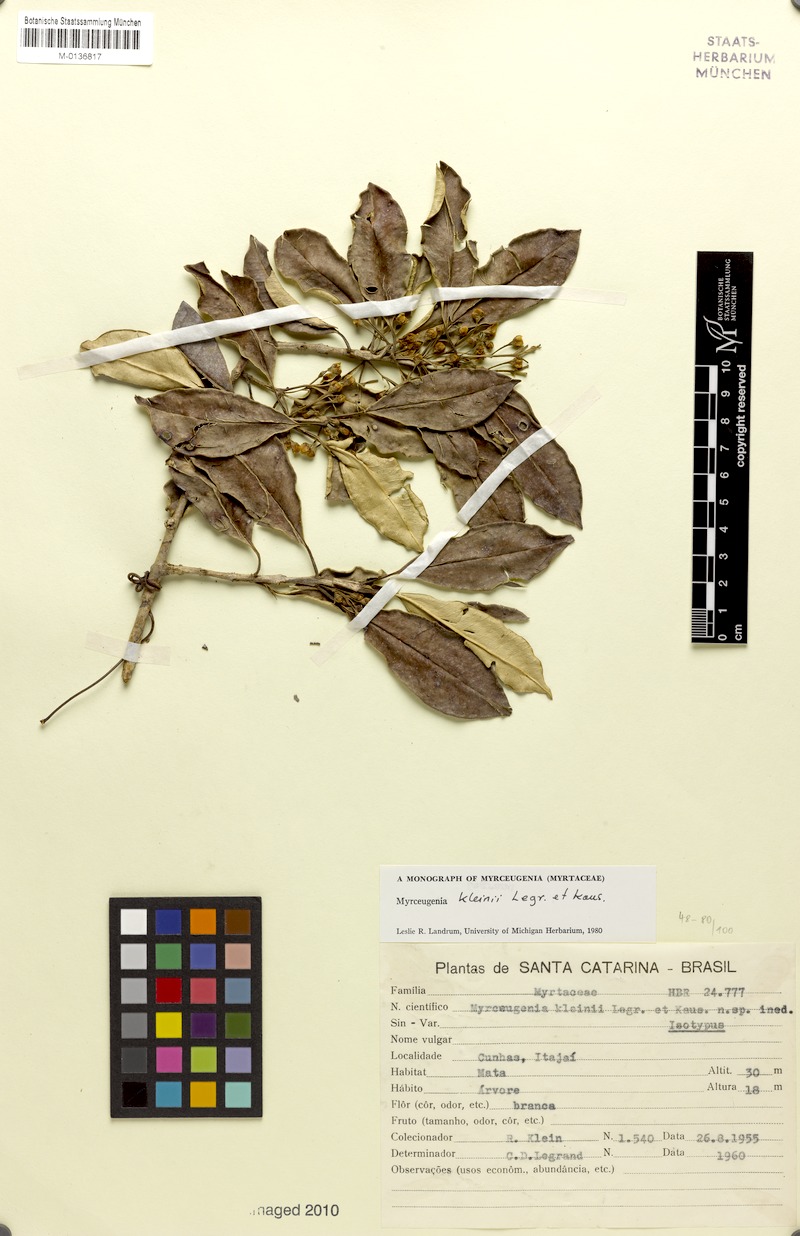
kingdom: Plantae
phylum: Tracheophyta
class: Magnoliopsida
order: Myrtales
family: Myrtaceae
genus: Myrceugenia
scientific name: Myrceugenia kleinii
